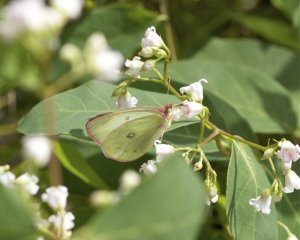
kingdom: Animalia
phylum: Arthropoda
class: Insecta
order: Lepidoptera
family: Pieridae
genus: Colias
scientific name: Colias philodice
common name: Clouded Sulphur
